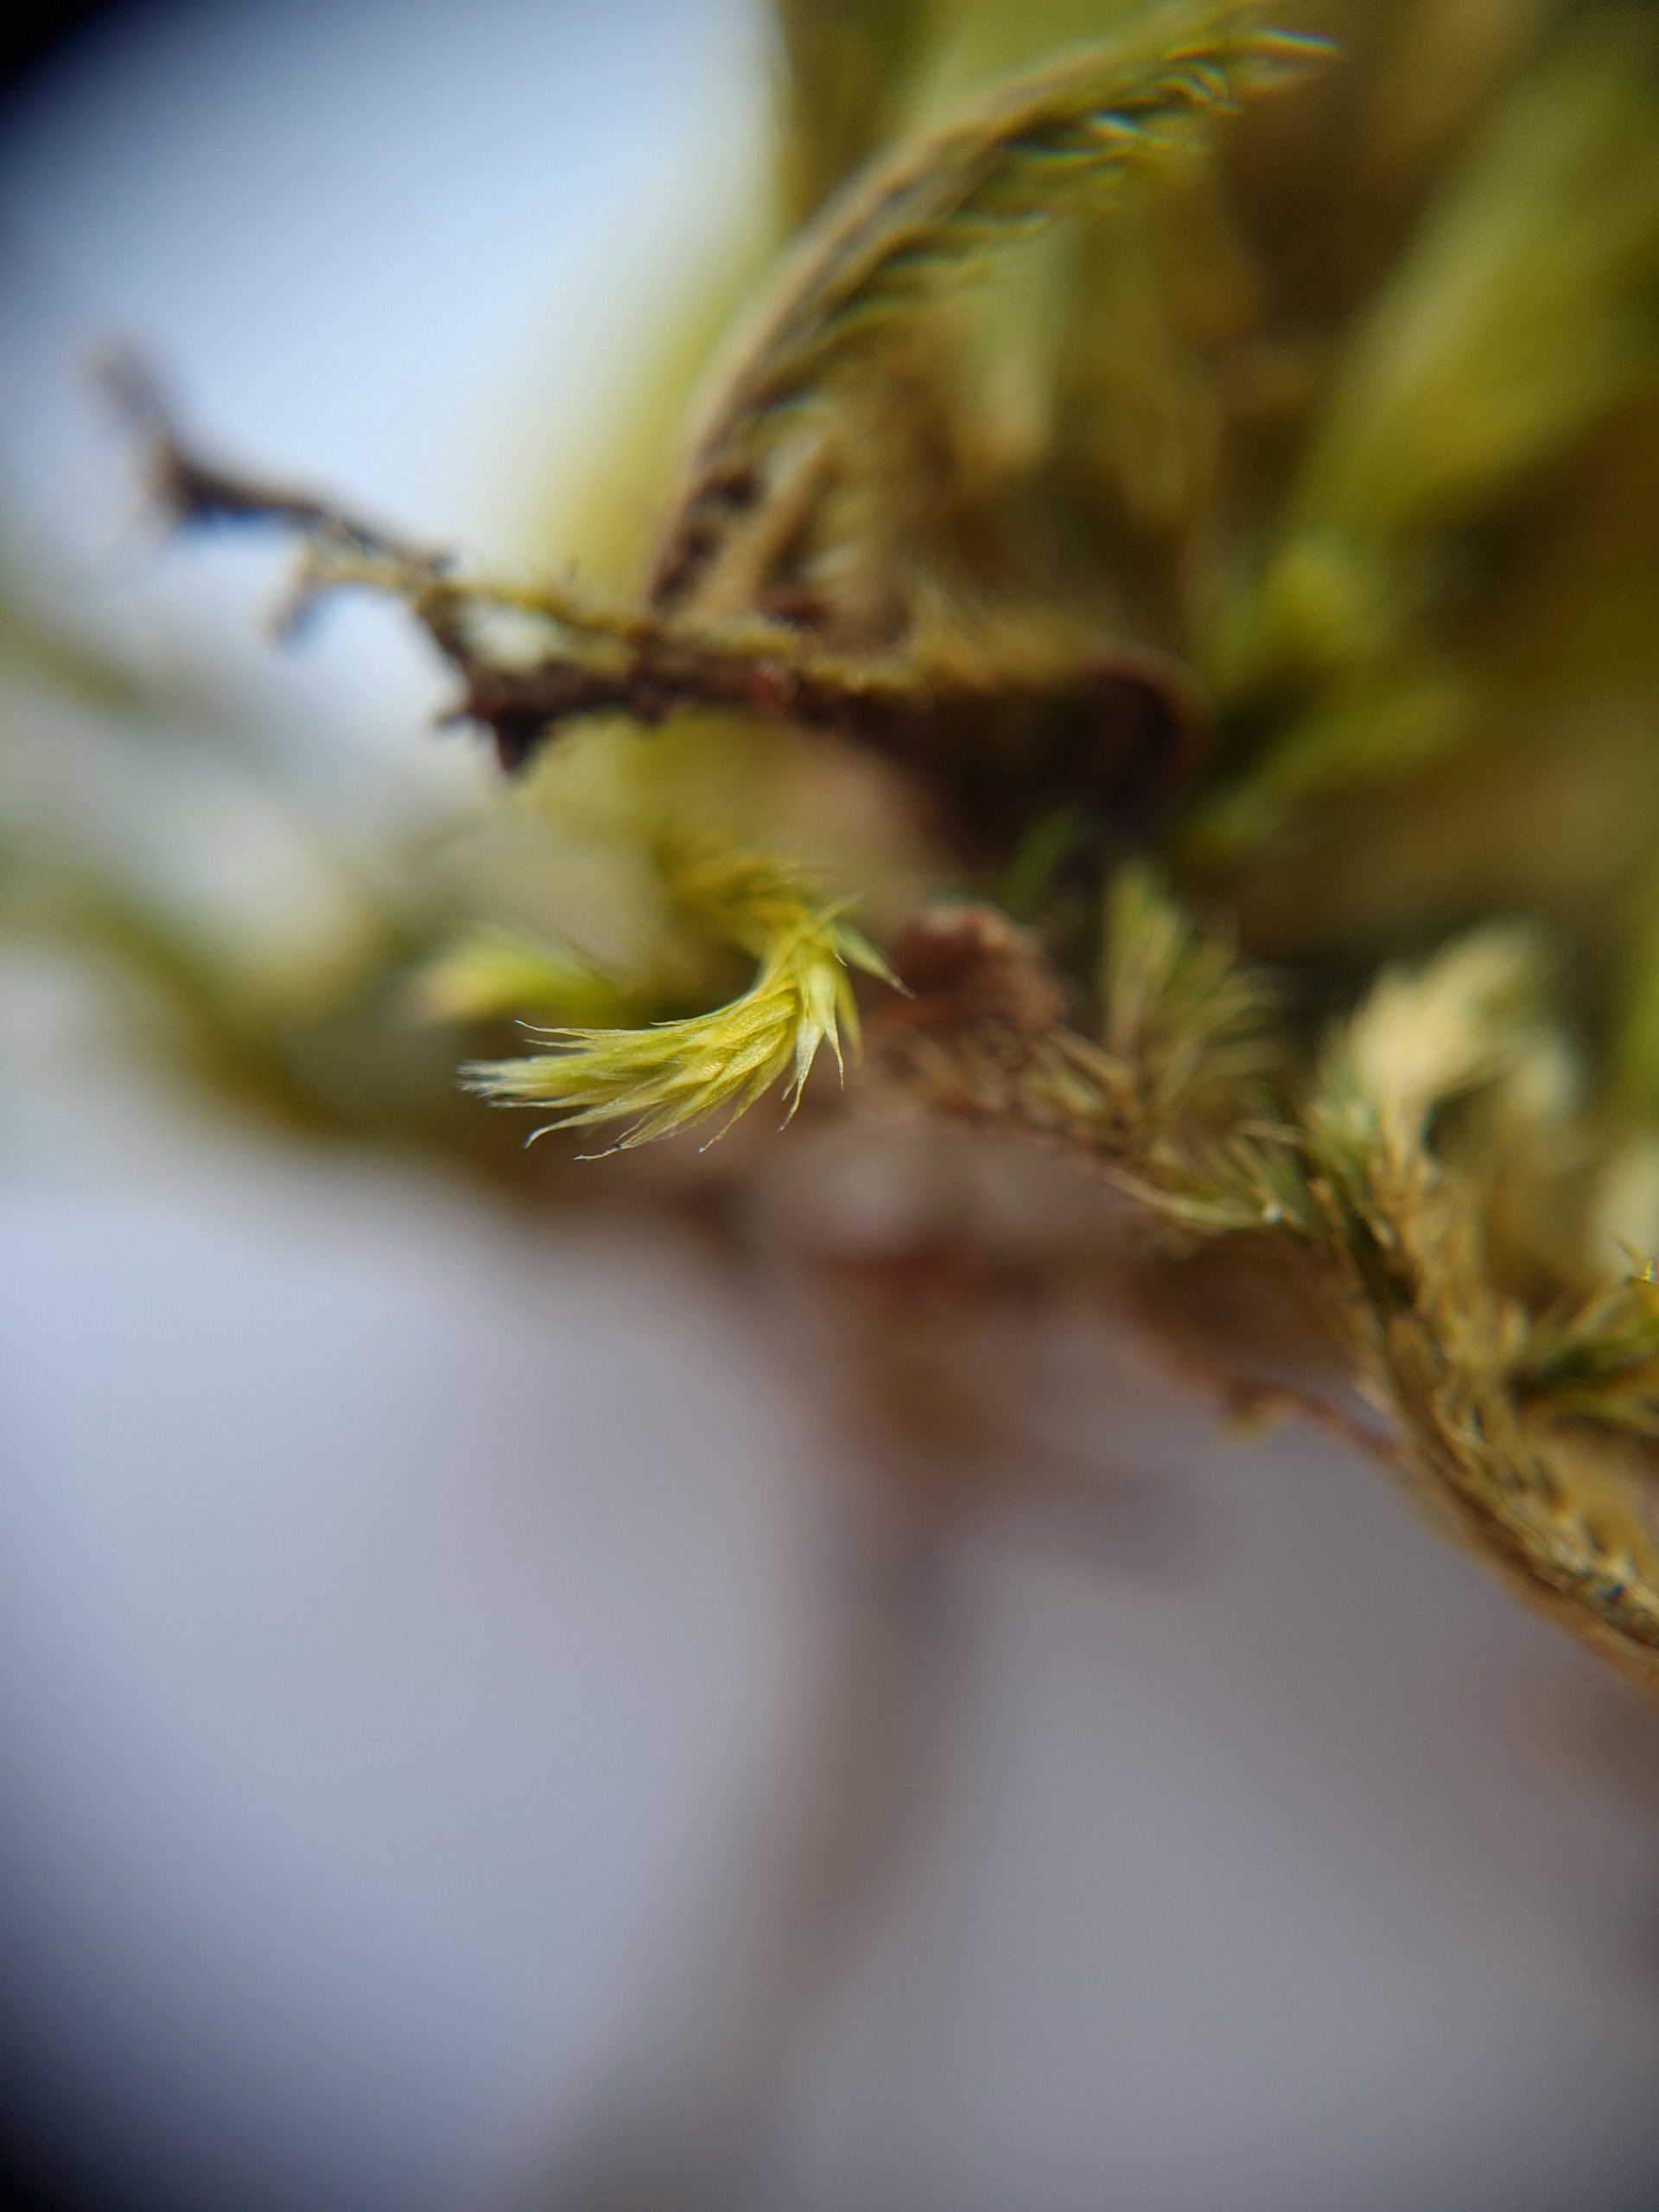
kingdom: Plantae
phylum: Bryophyta
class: Bryopsida
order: Hypnales
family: Brachytheciaceae
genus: Homalothecium
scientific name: Homalothecium sericeum
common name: Krybende silkemos
